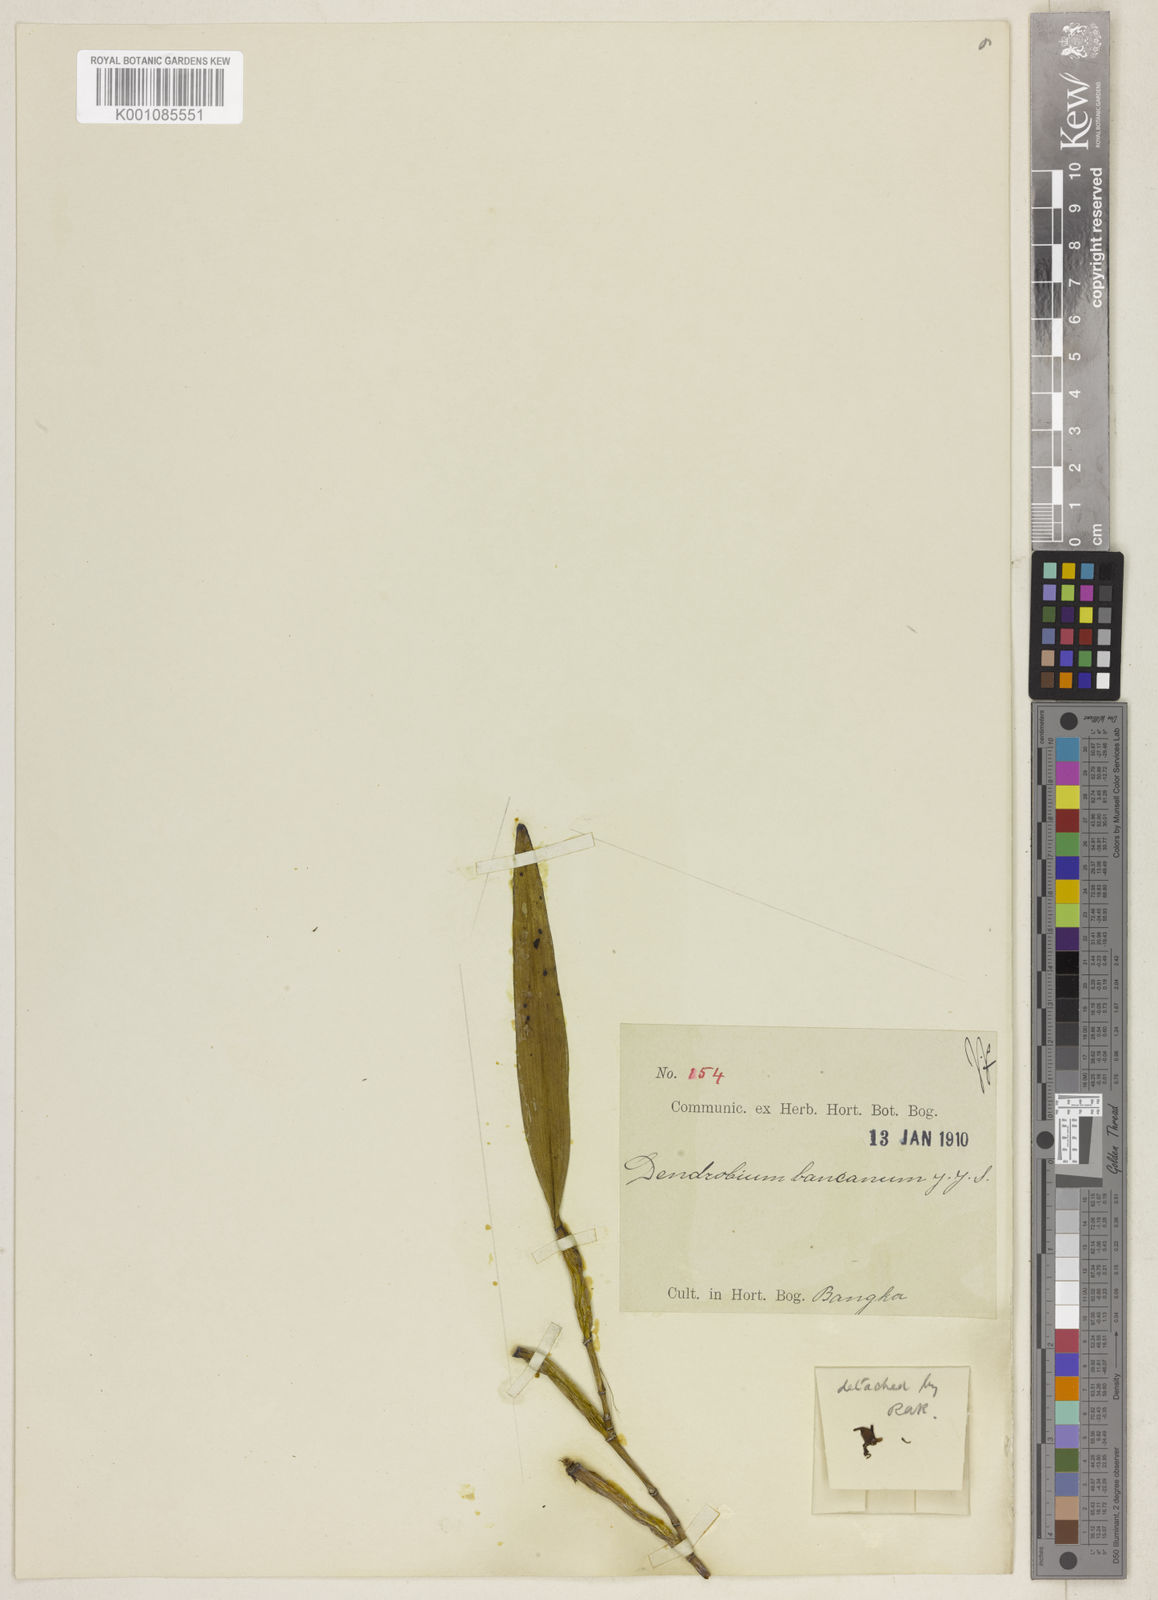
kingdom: Plantae
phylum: Tracheophyta
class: Liliopsida
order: Asparagales
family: Orchidaceae
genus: Dendrobium
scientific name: Dendrobium angustifolium
